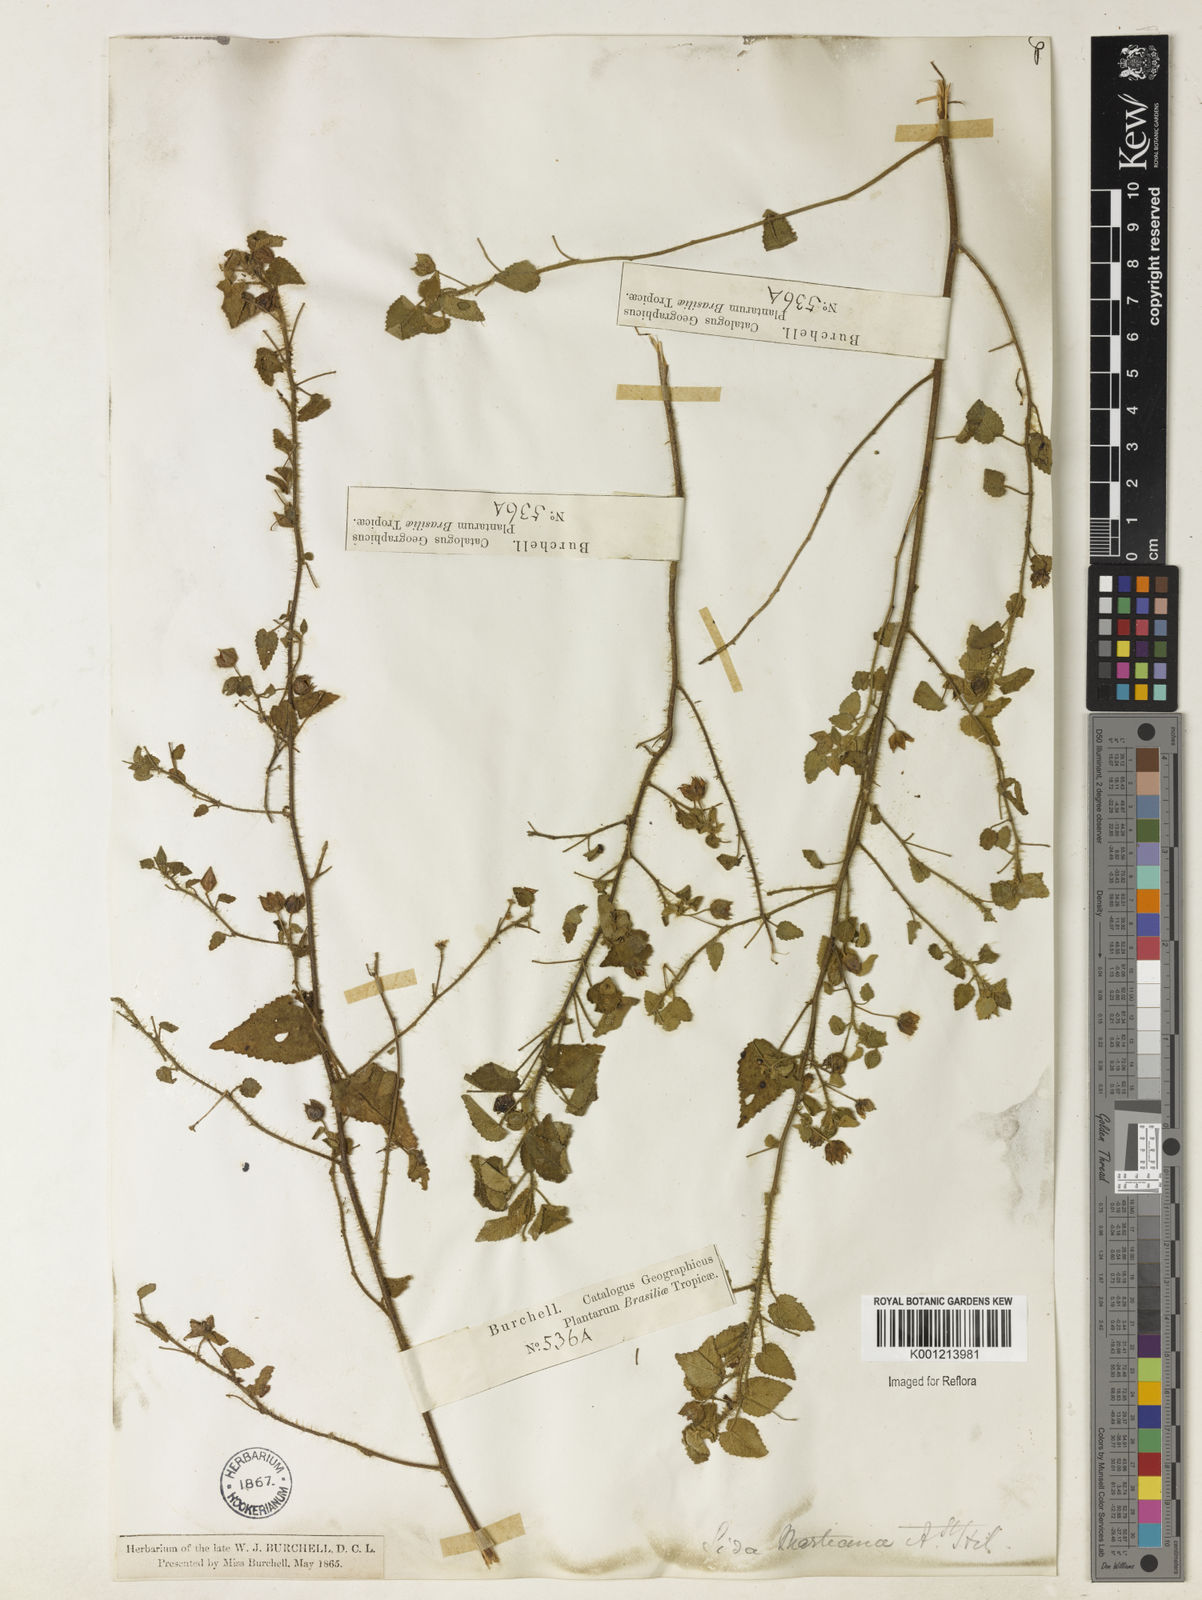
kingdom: Plantae
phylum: Tracheophyta
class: Magnoliopsida
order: Malvales
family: Malvaceae
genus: Sida
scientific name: Sida aurantiaca
